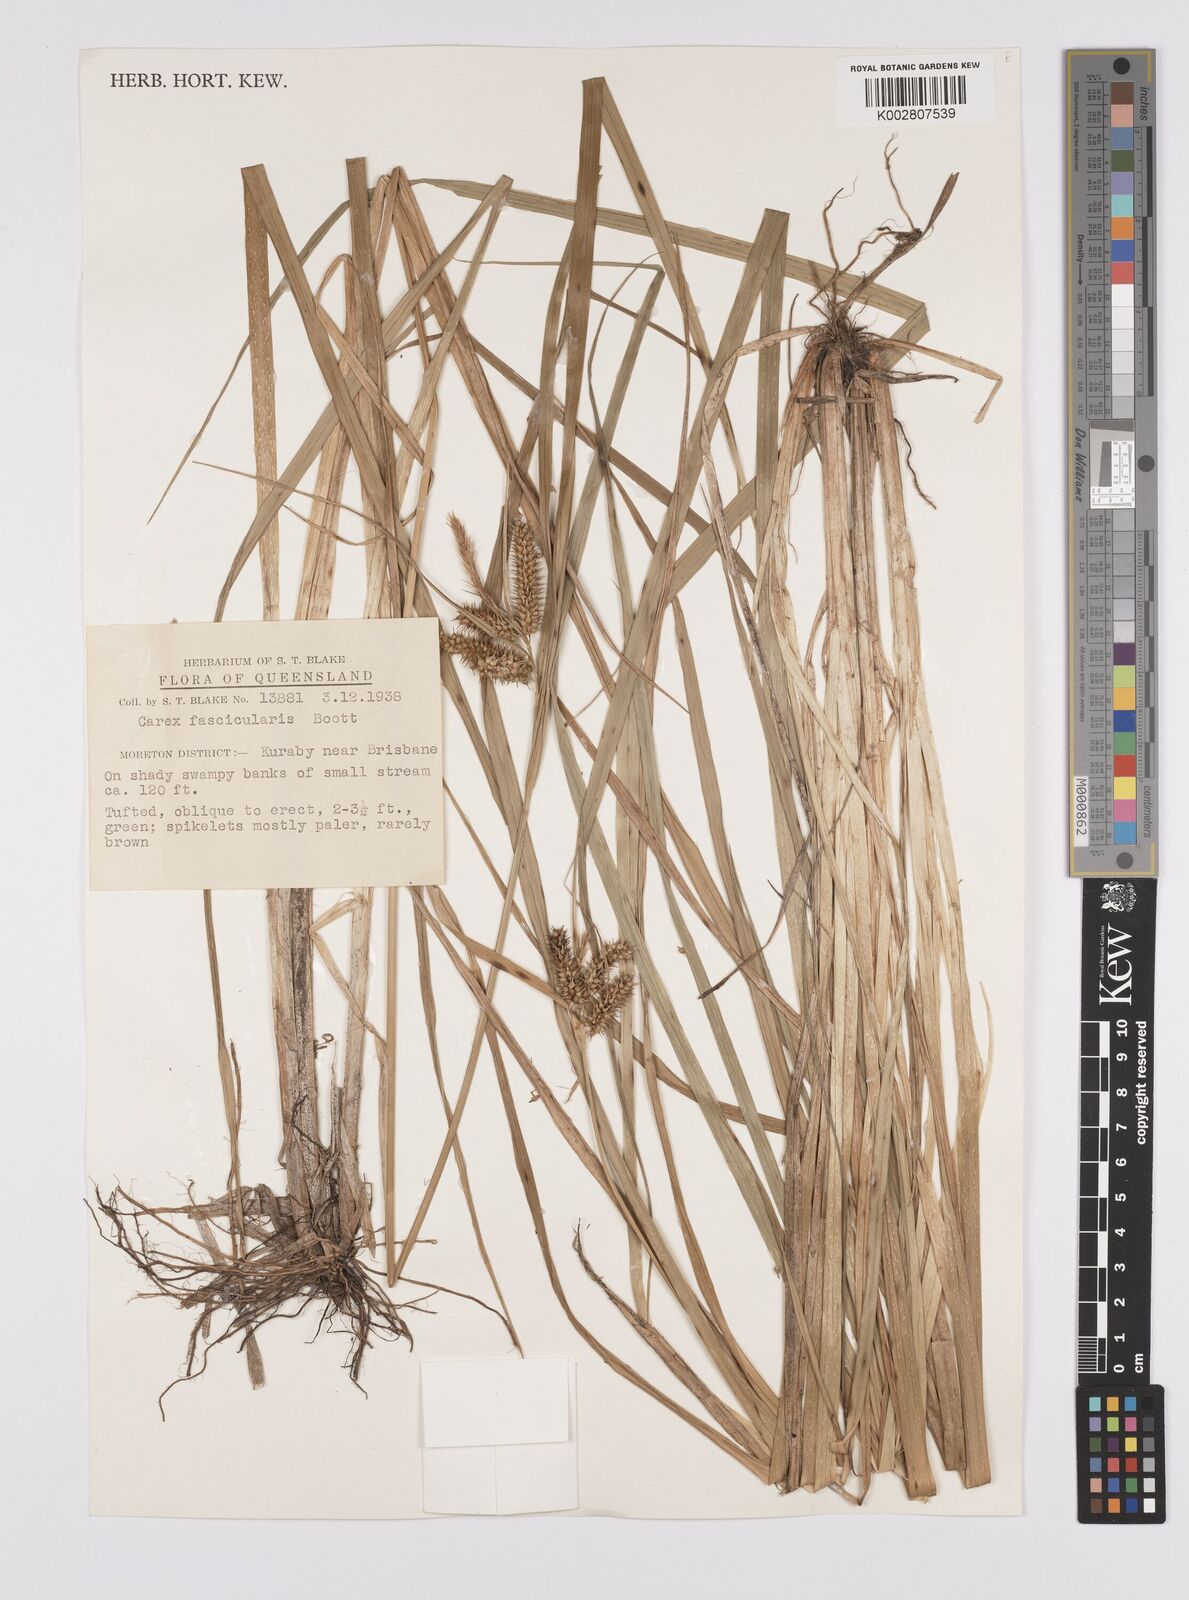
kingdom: Plantae
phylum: Tracheophyta
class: Liliopsida
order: Poales
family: Cyperaceae
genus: Carex
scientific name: Carex cespitosa
